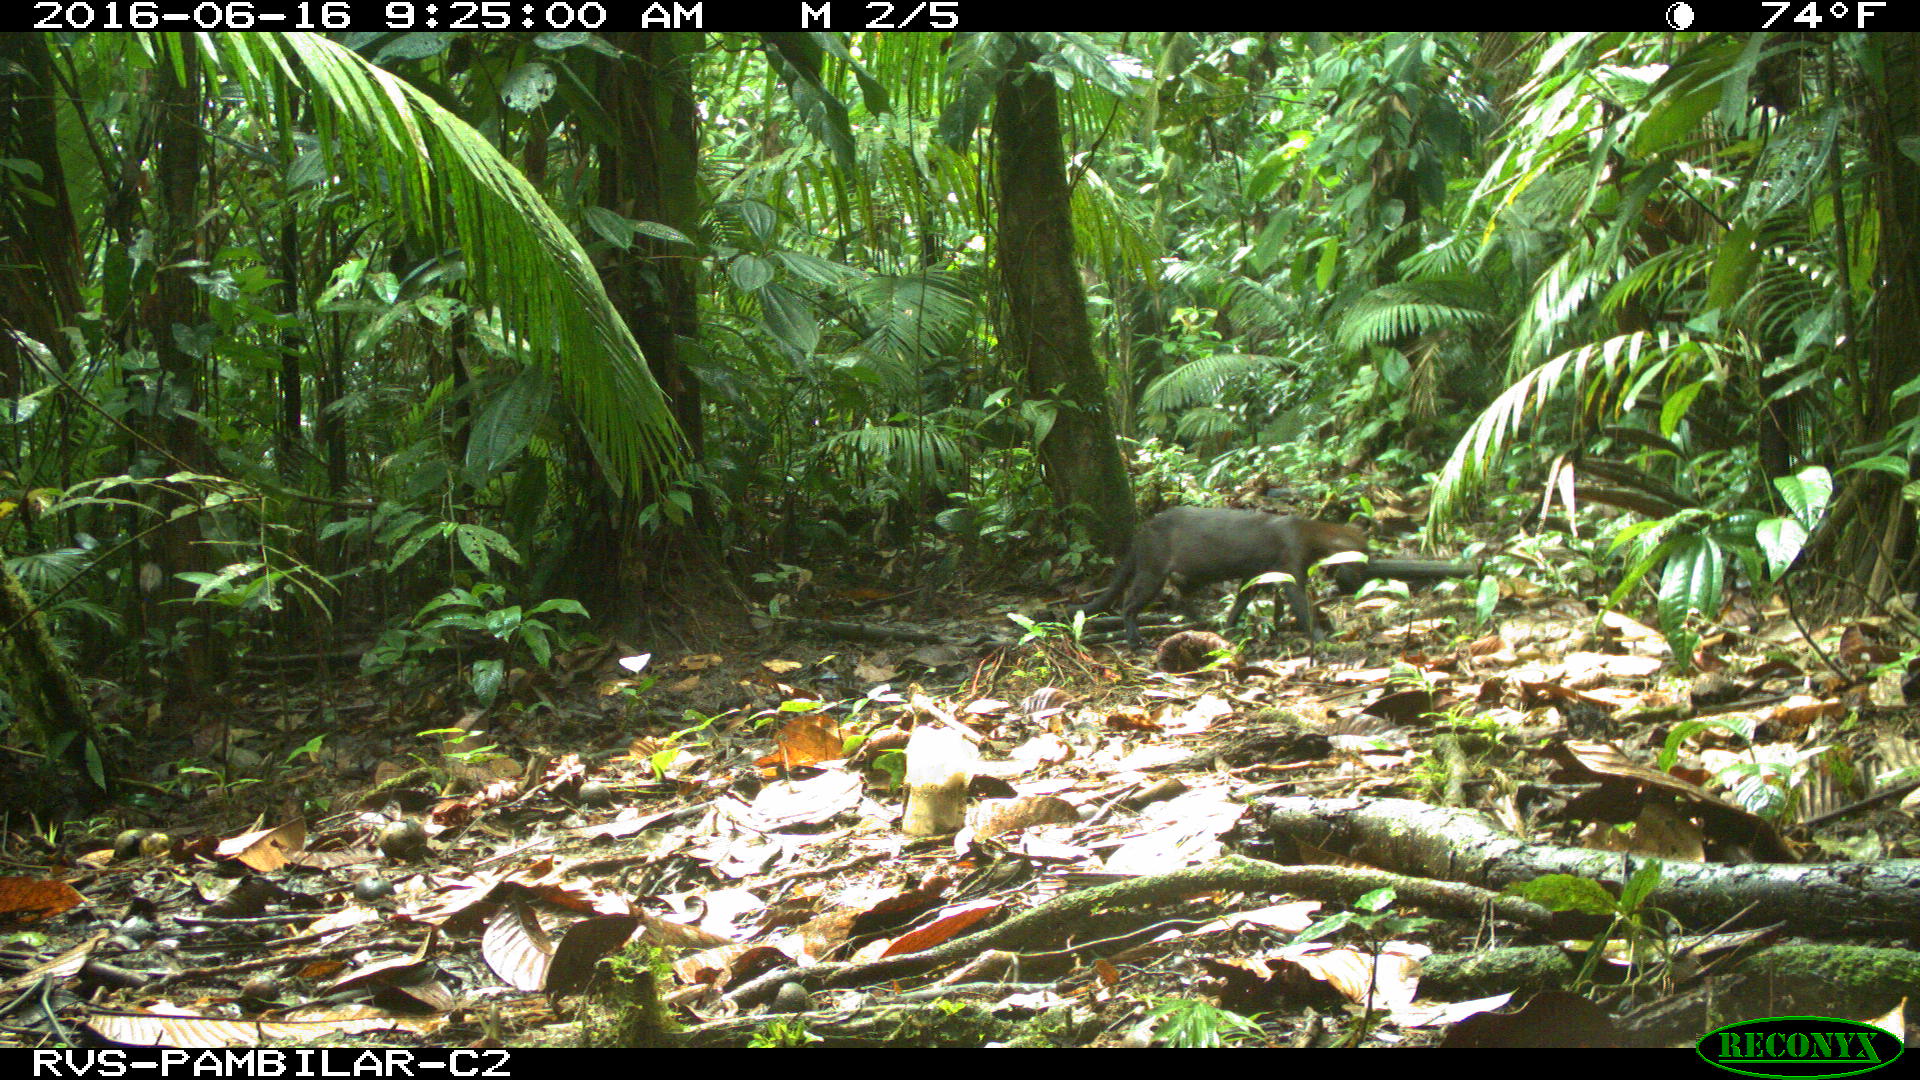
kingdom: Animalia
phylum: Chordata
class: Mammalia
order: Carnivora
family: Mustelidae
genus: Eira
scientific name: Eira barbara
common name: Tayra
